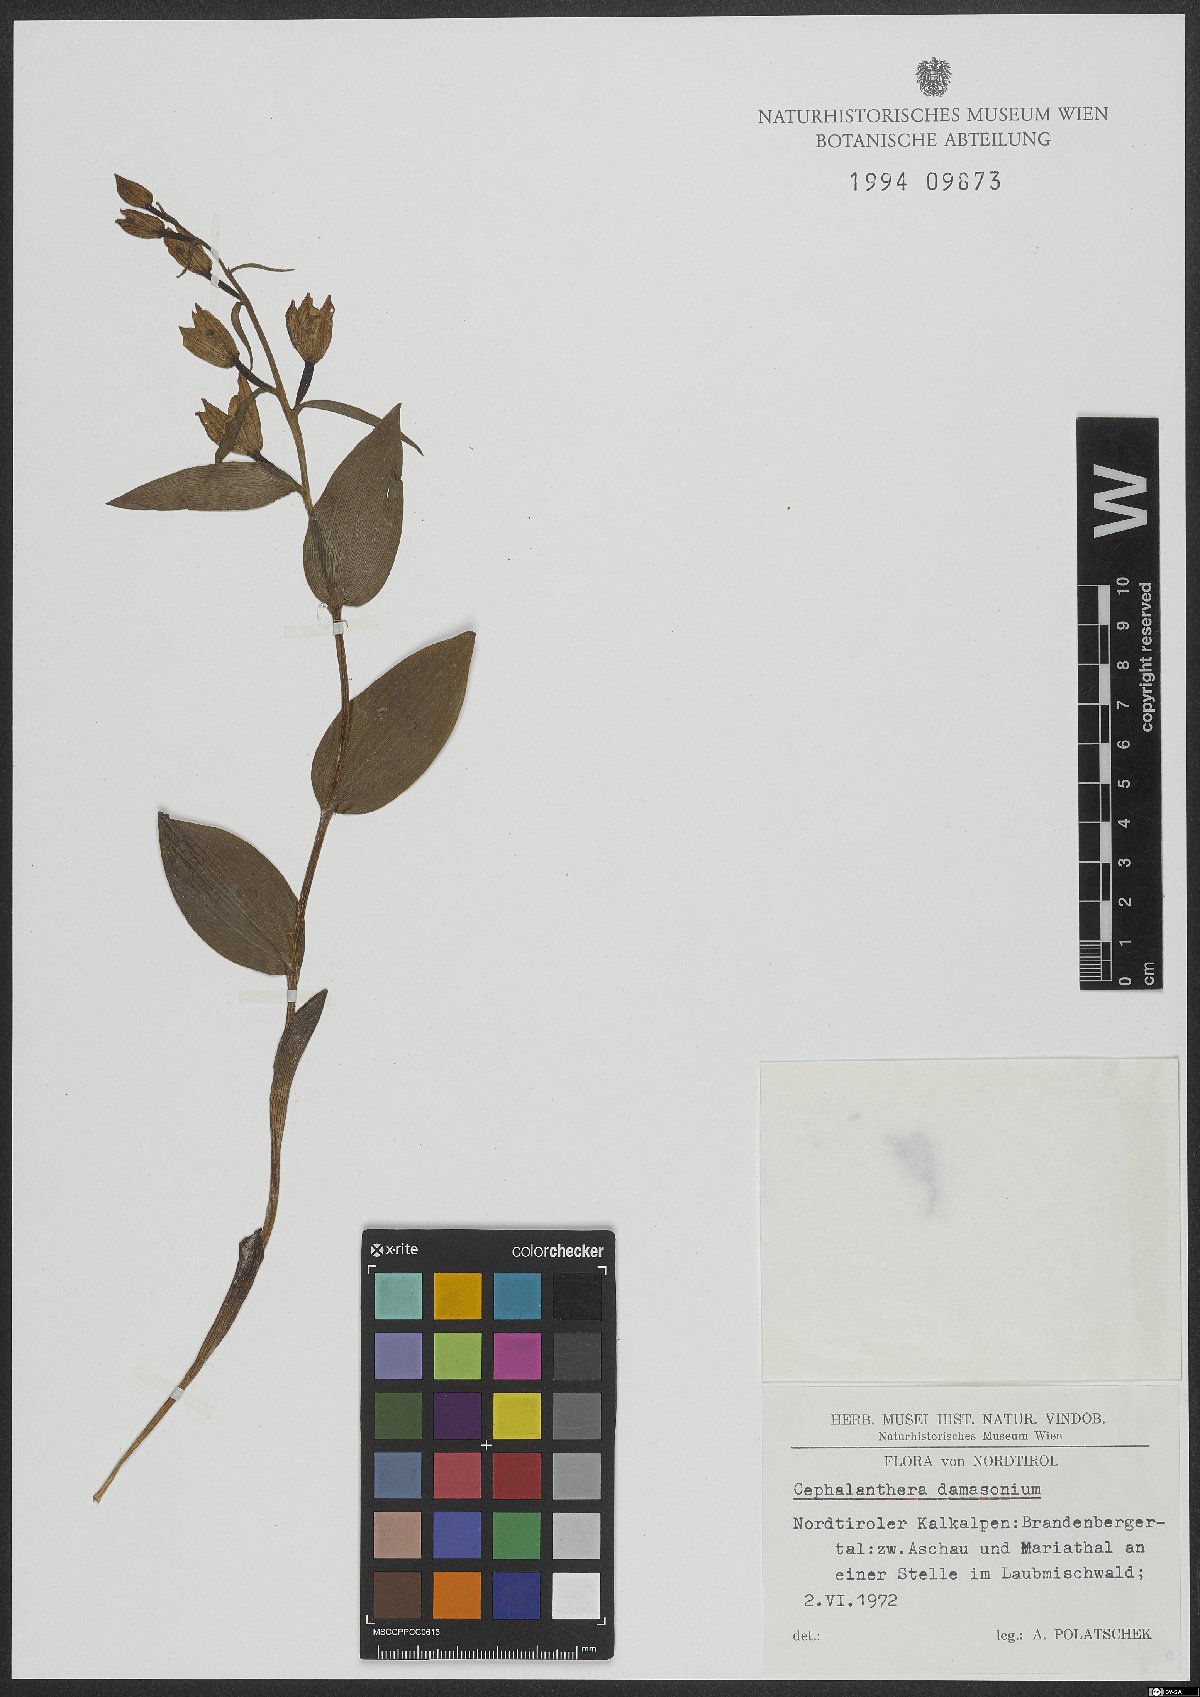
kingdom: Plantae
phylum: Tracheophyta
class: Liliopsida
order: Asparagales
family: Orchidaceae
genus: Cephalanthera
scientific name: Cephalanthera damasonium
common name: White helleborine
